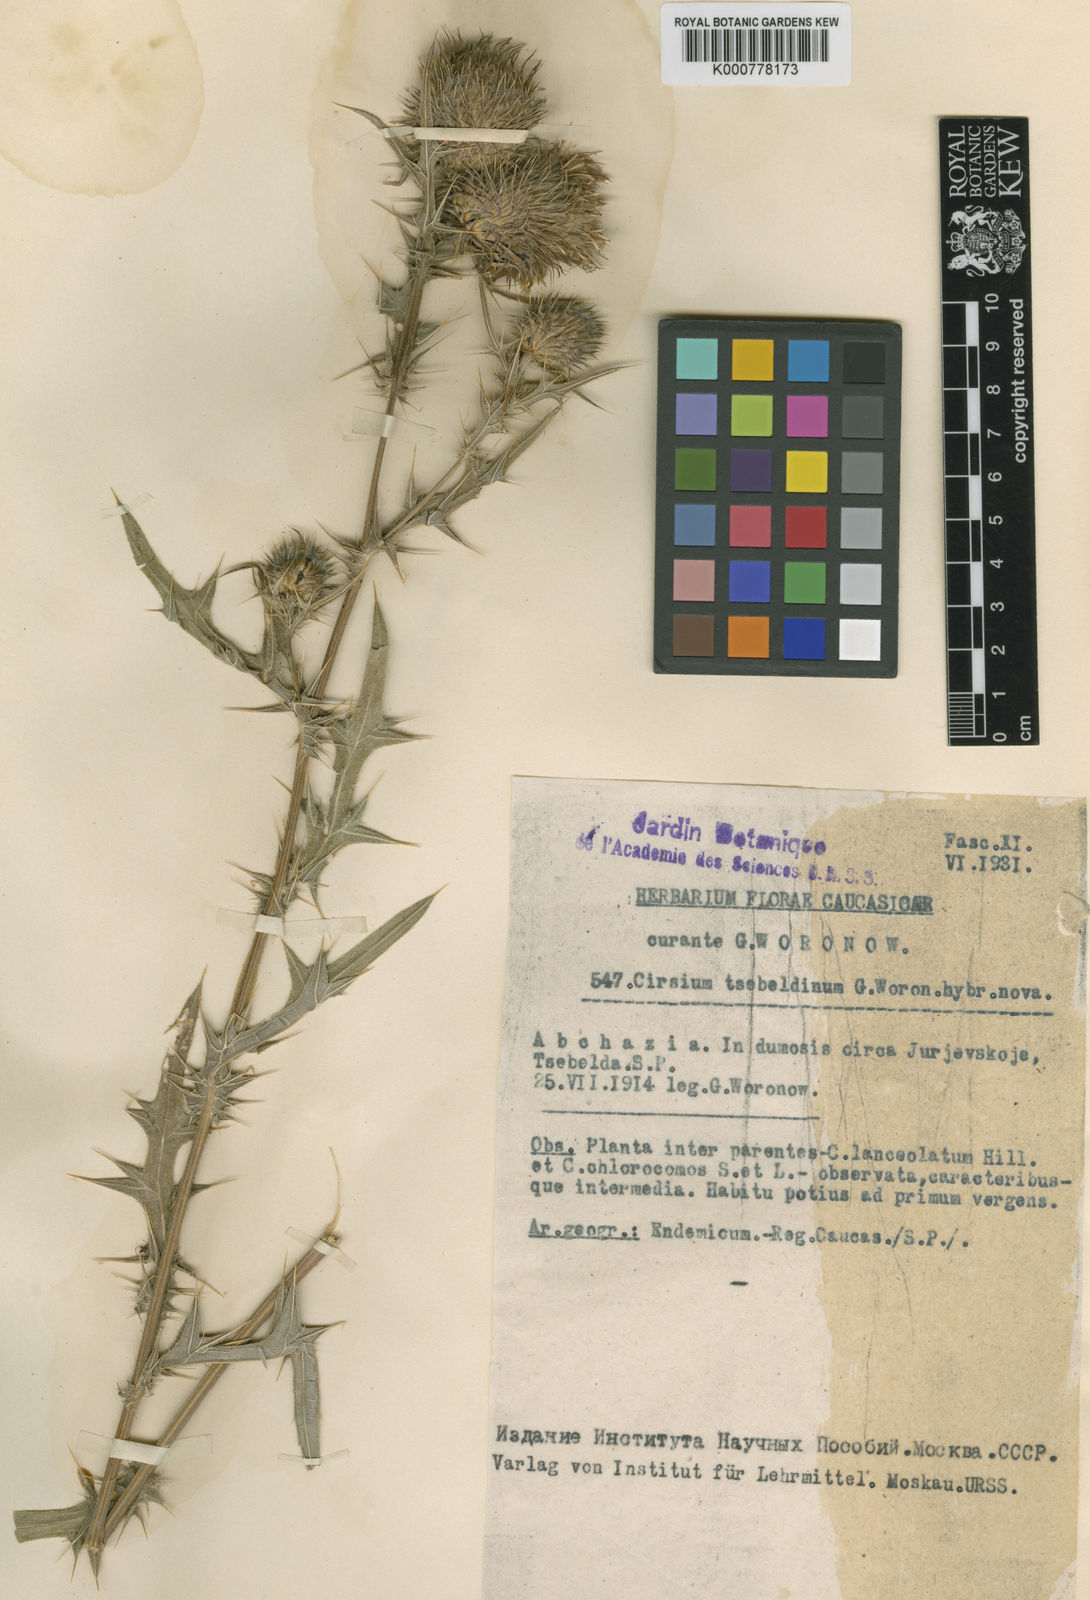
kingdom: Plantae
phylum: Tracheophyta
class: Magnoliopsida
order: Asterales
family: Asteraceae
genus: Cirsium
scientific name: Cirsium
